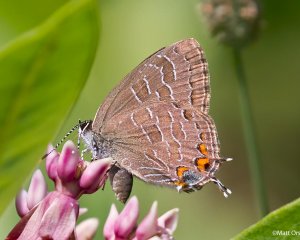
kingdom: Animalia
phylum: Arthropoda
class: Insecta
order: Lepidoptera
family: Lycaenidae
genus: Satyrium
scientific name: Satyrium liparops
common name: Striped Hairstreak
